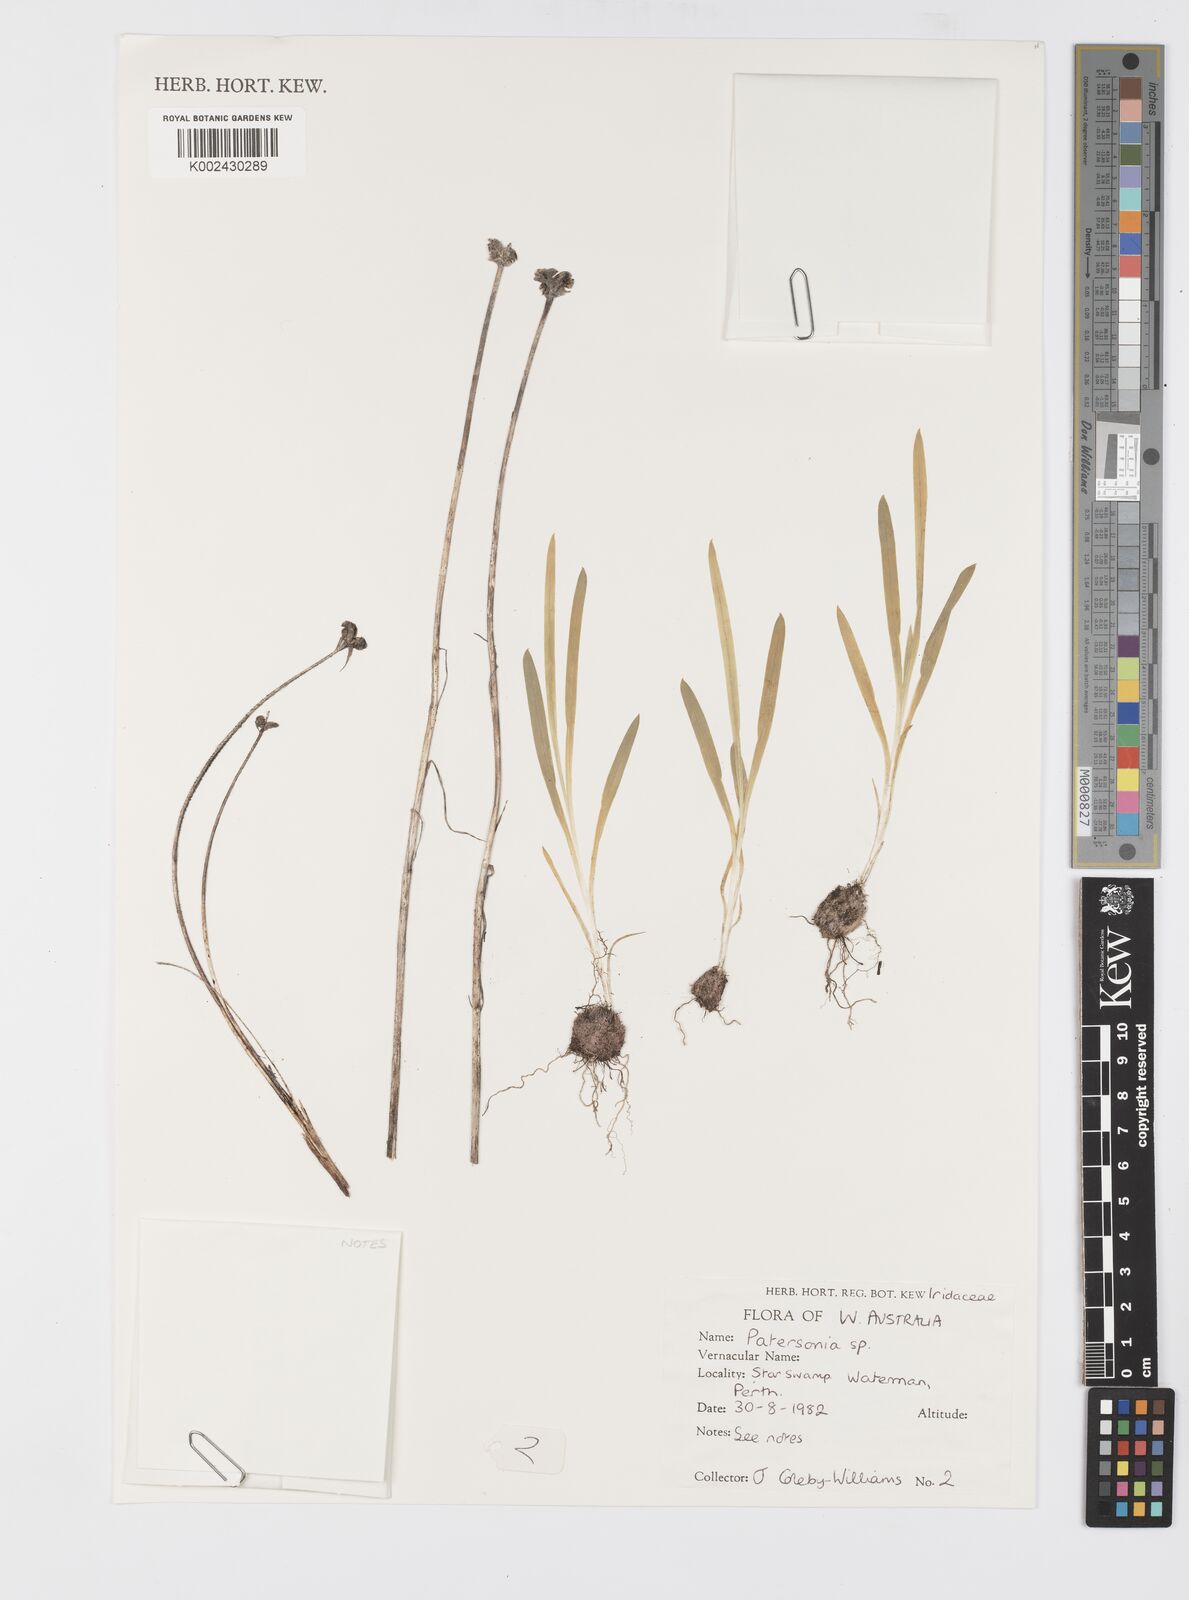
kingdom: Plantae
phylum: Tracheophyta
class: Liliopsida
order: Asparagales
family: Iridaceae
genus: Patersonia
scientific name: Patersonia
